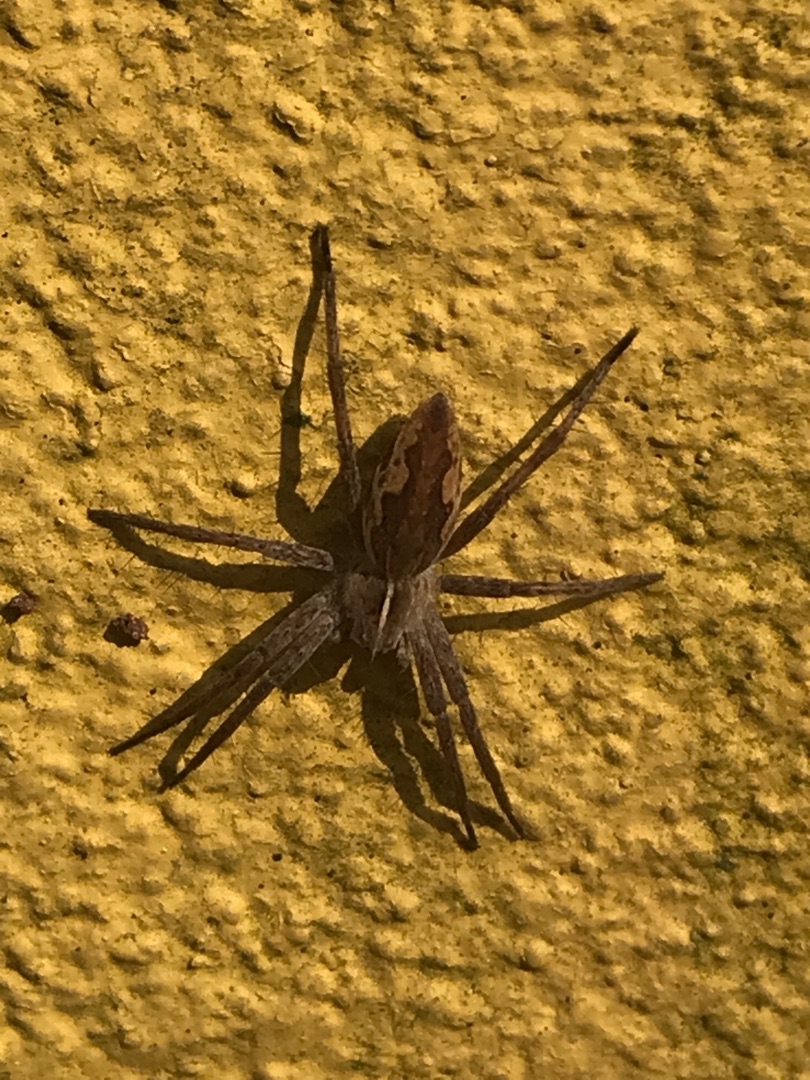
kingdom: Animalia
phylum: Arthropoda
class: Arachnida
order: Araneae
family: Pisauridae
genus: Pisaura
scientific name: Pisaura mirabilis
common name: Almindelig rovedderkop
